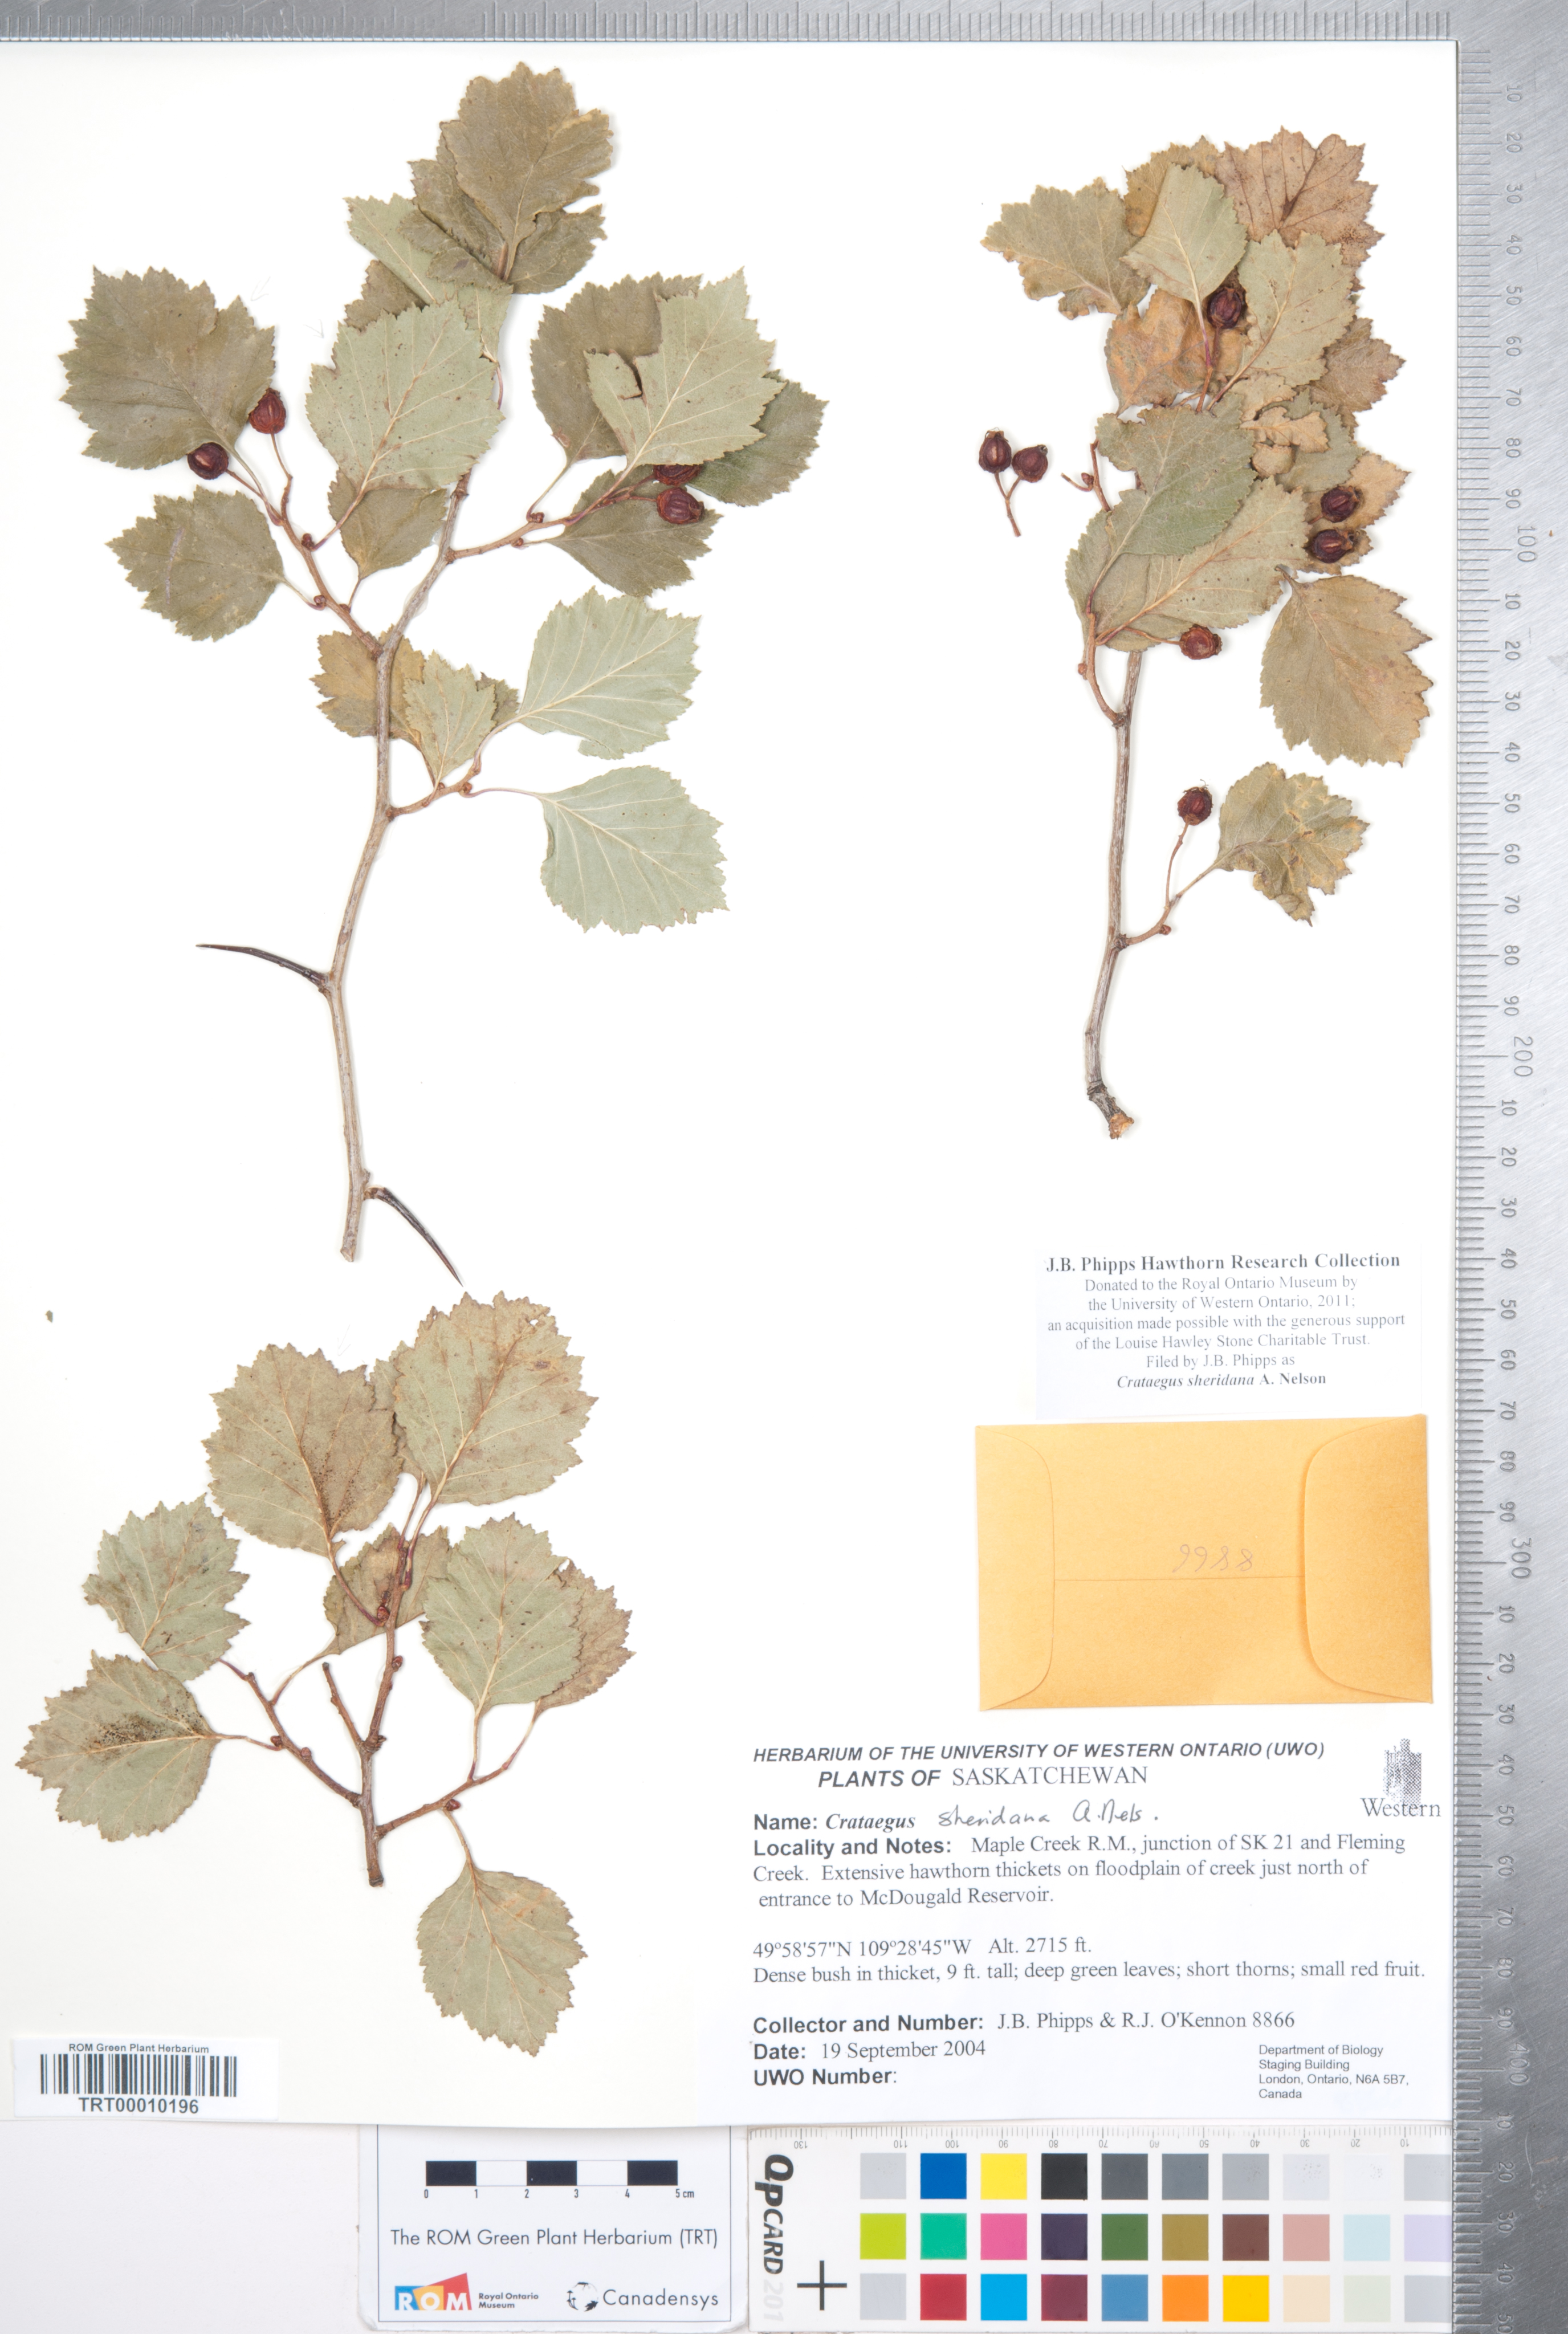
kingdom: Plantae
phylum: Tracheophyta
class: Magnoliopsida
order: Rosales
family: Rosaceae
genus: Crataegus
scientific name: Crataegus chrysocarpa
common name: Fire-berry hawthorn
